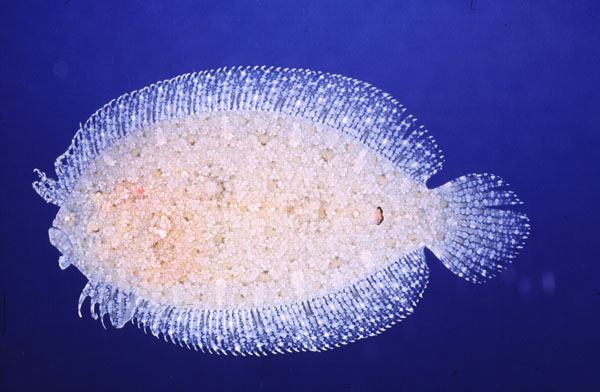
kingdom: Animalia
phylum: Chordata
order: Pleuronectiformes
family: Bothidae
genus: Asterorhombus
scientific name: Asterorhombus cocosensis
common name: Angler flatfish
